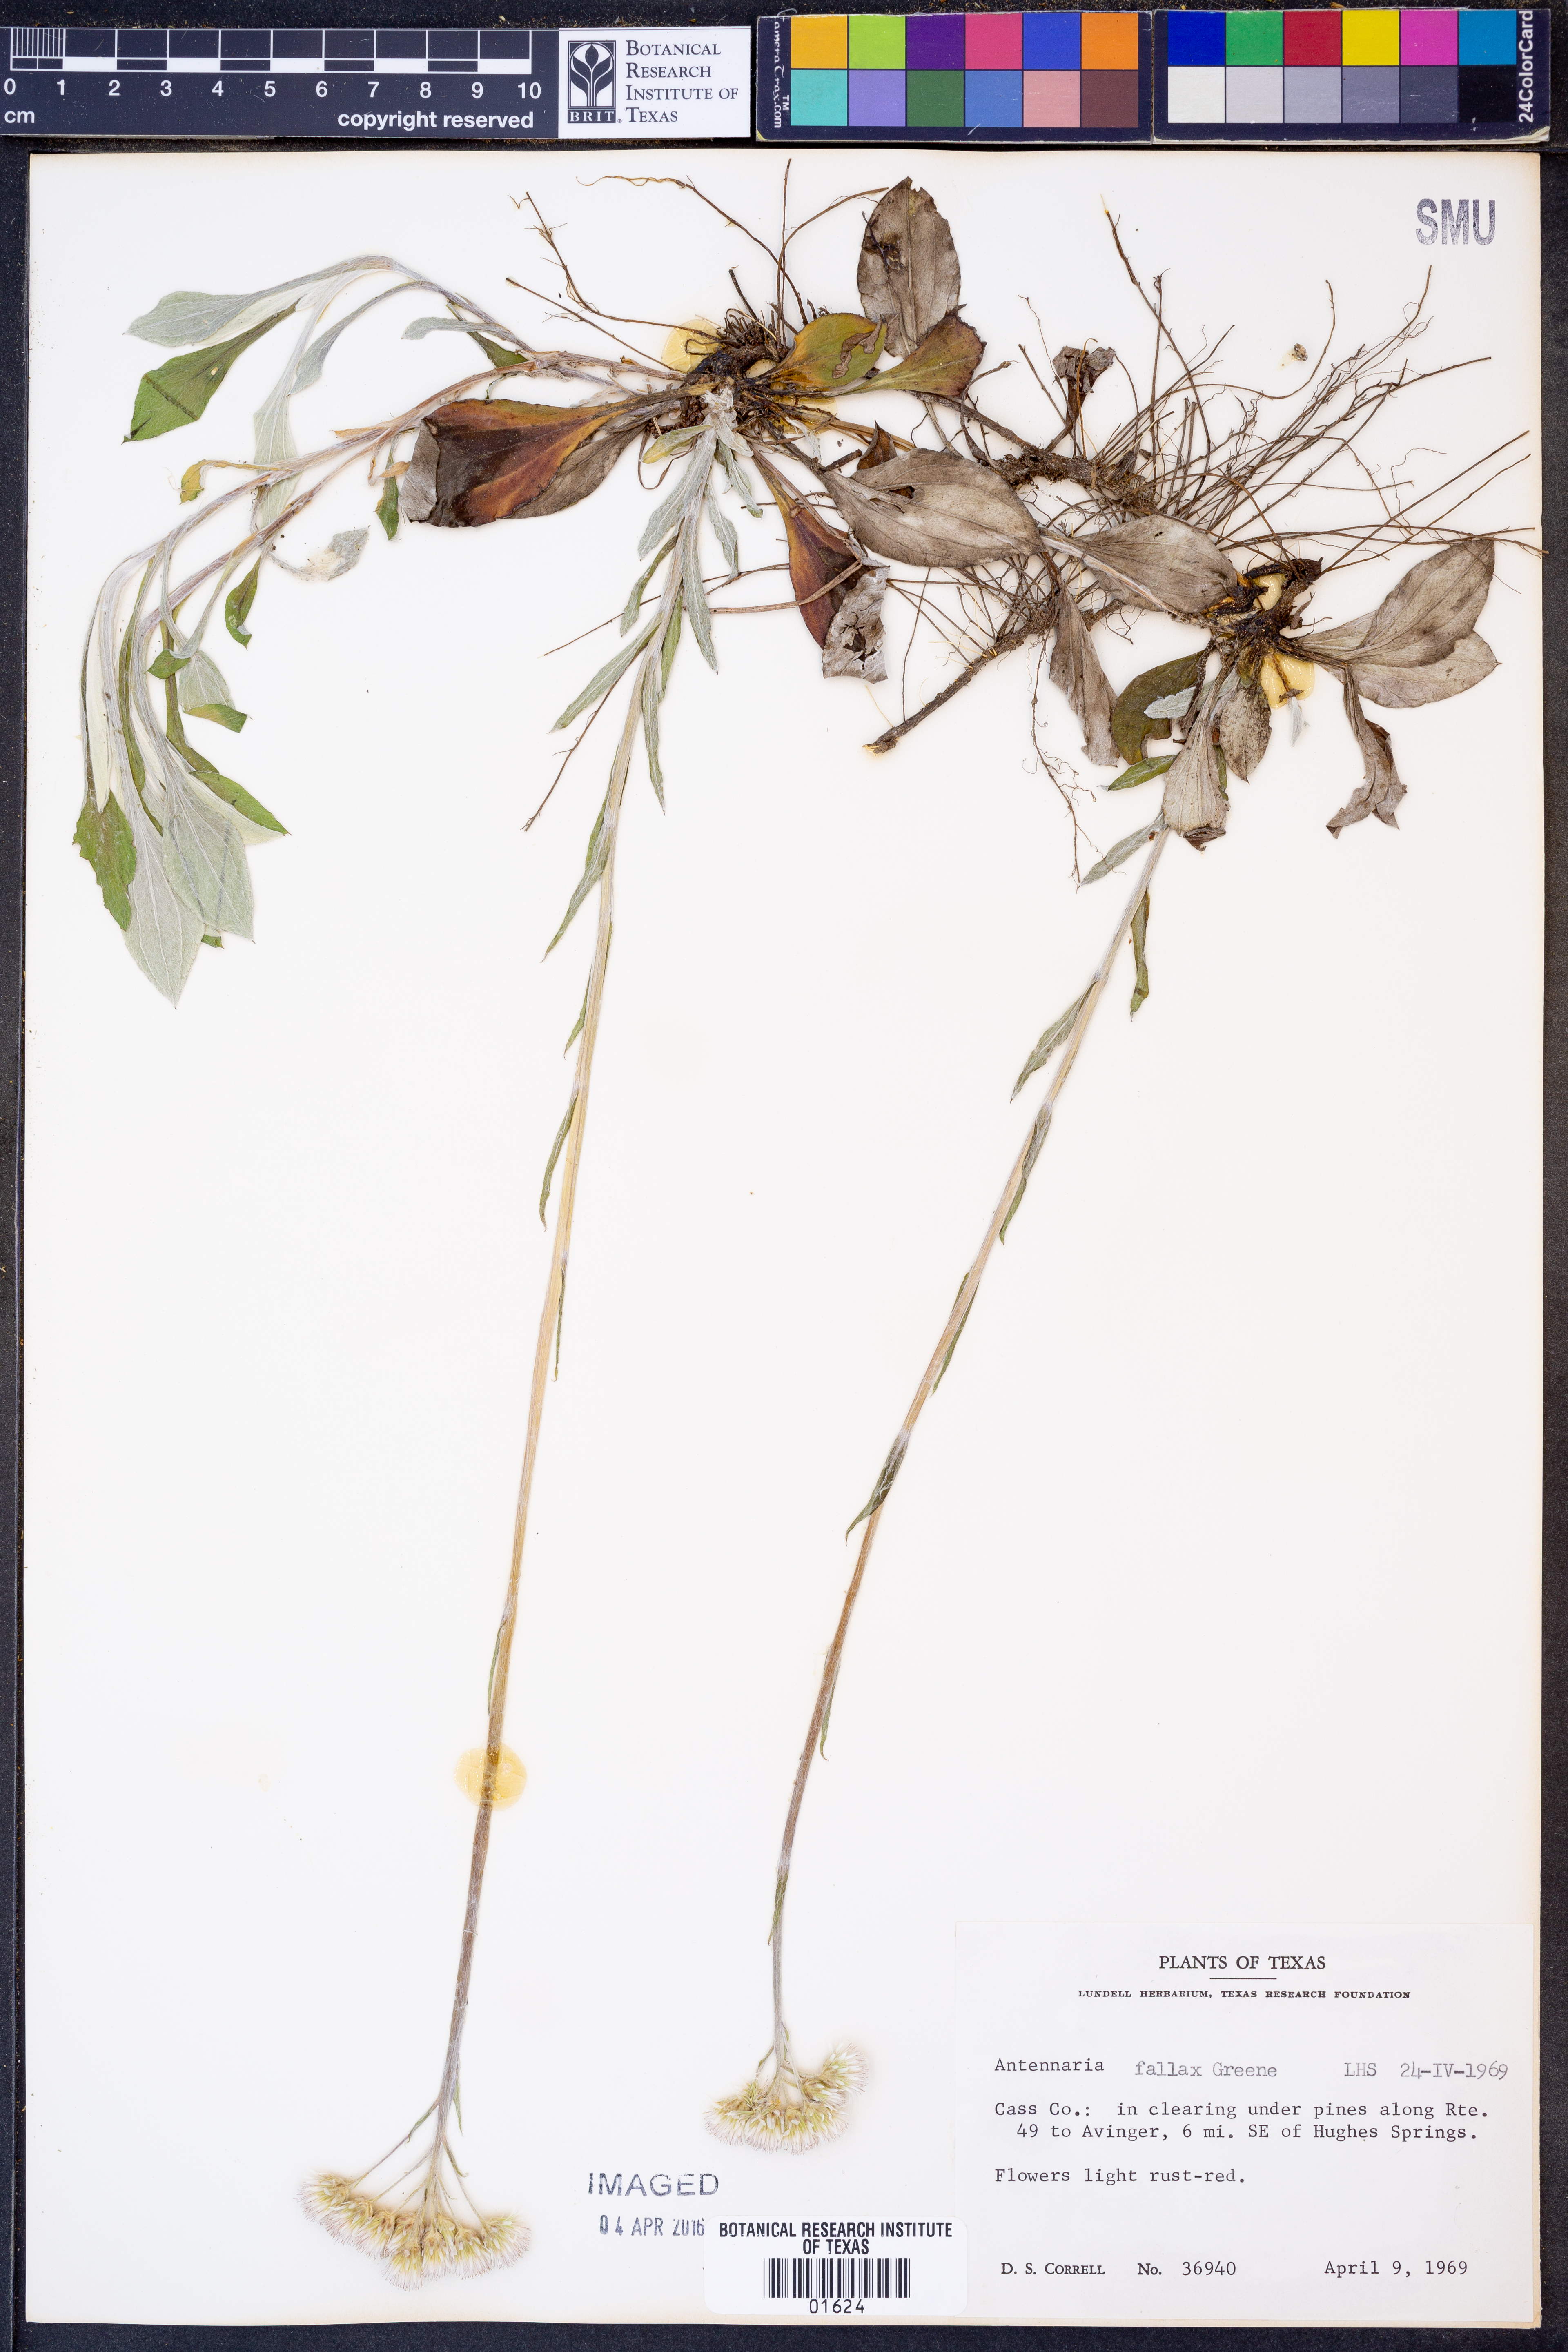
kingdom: Plantae
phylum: Tracheophyta
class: Magnoliopsida
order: Asterales
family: Asteraceae
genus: Antennaria
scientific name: Antennaria parlinii
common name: Parlin's pussytoes
